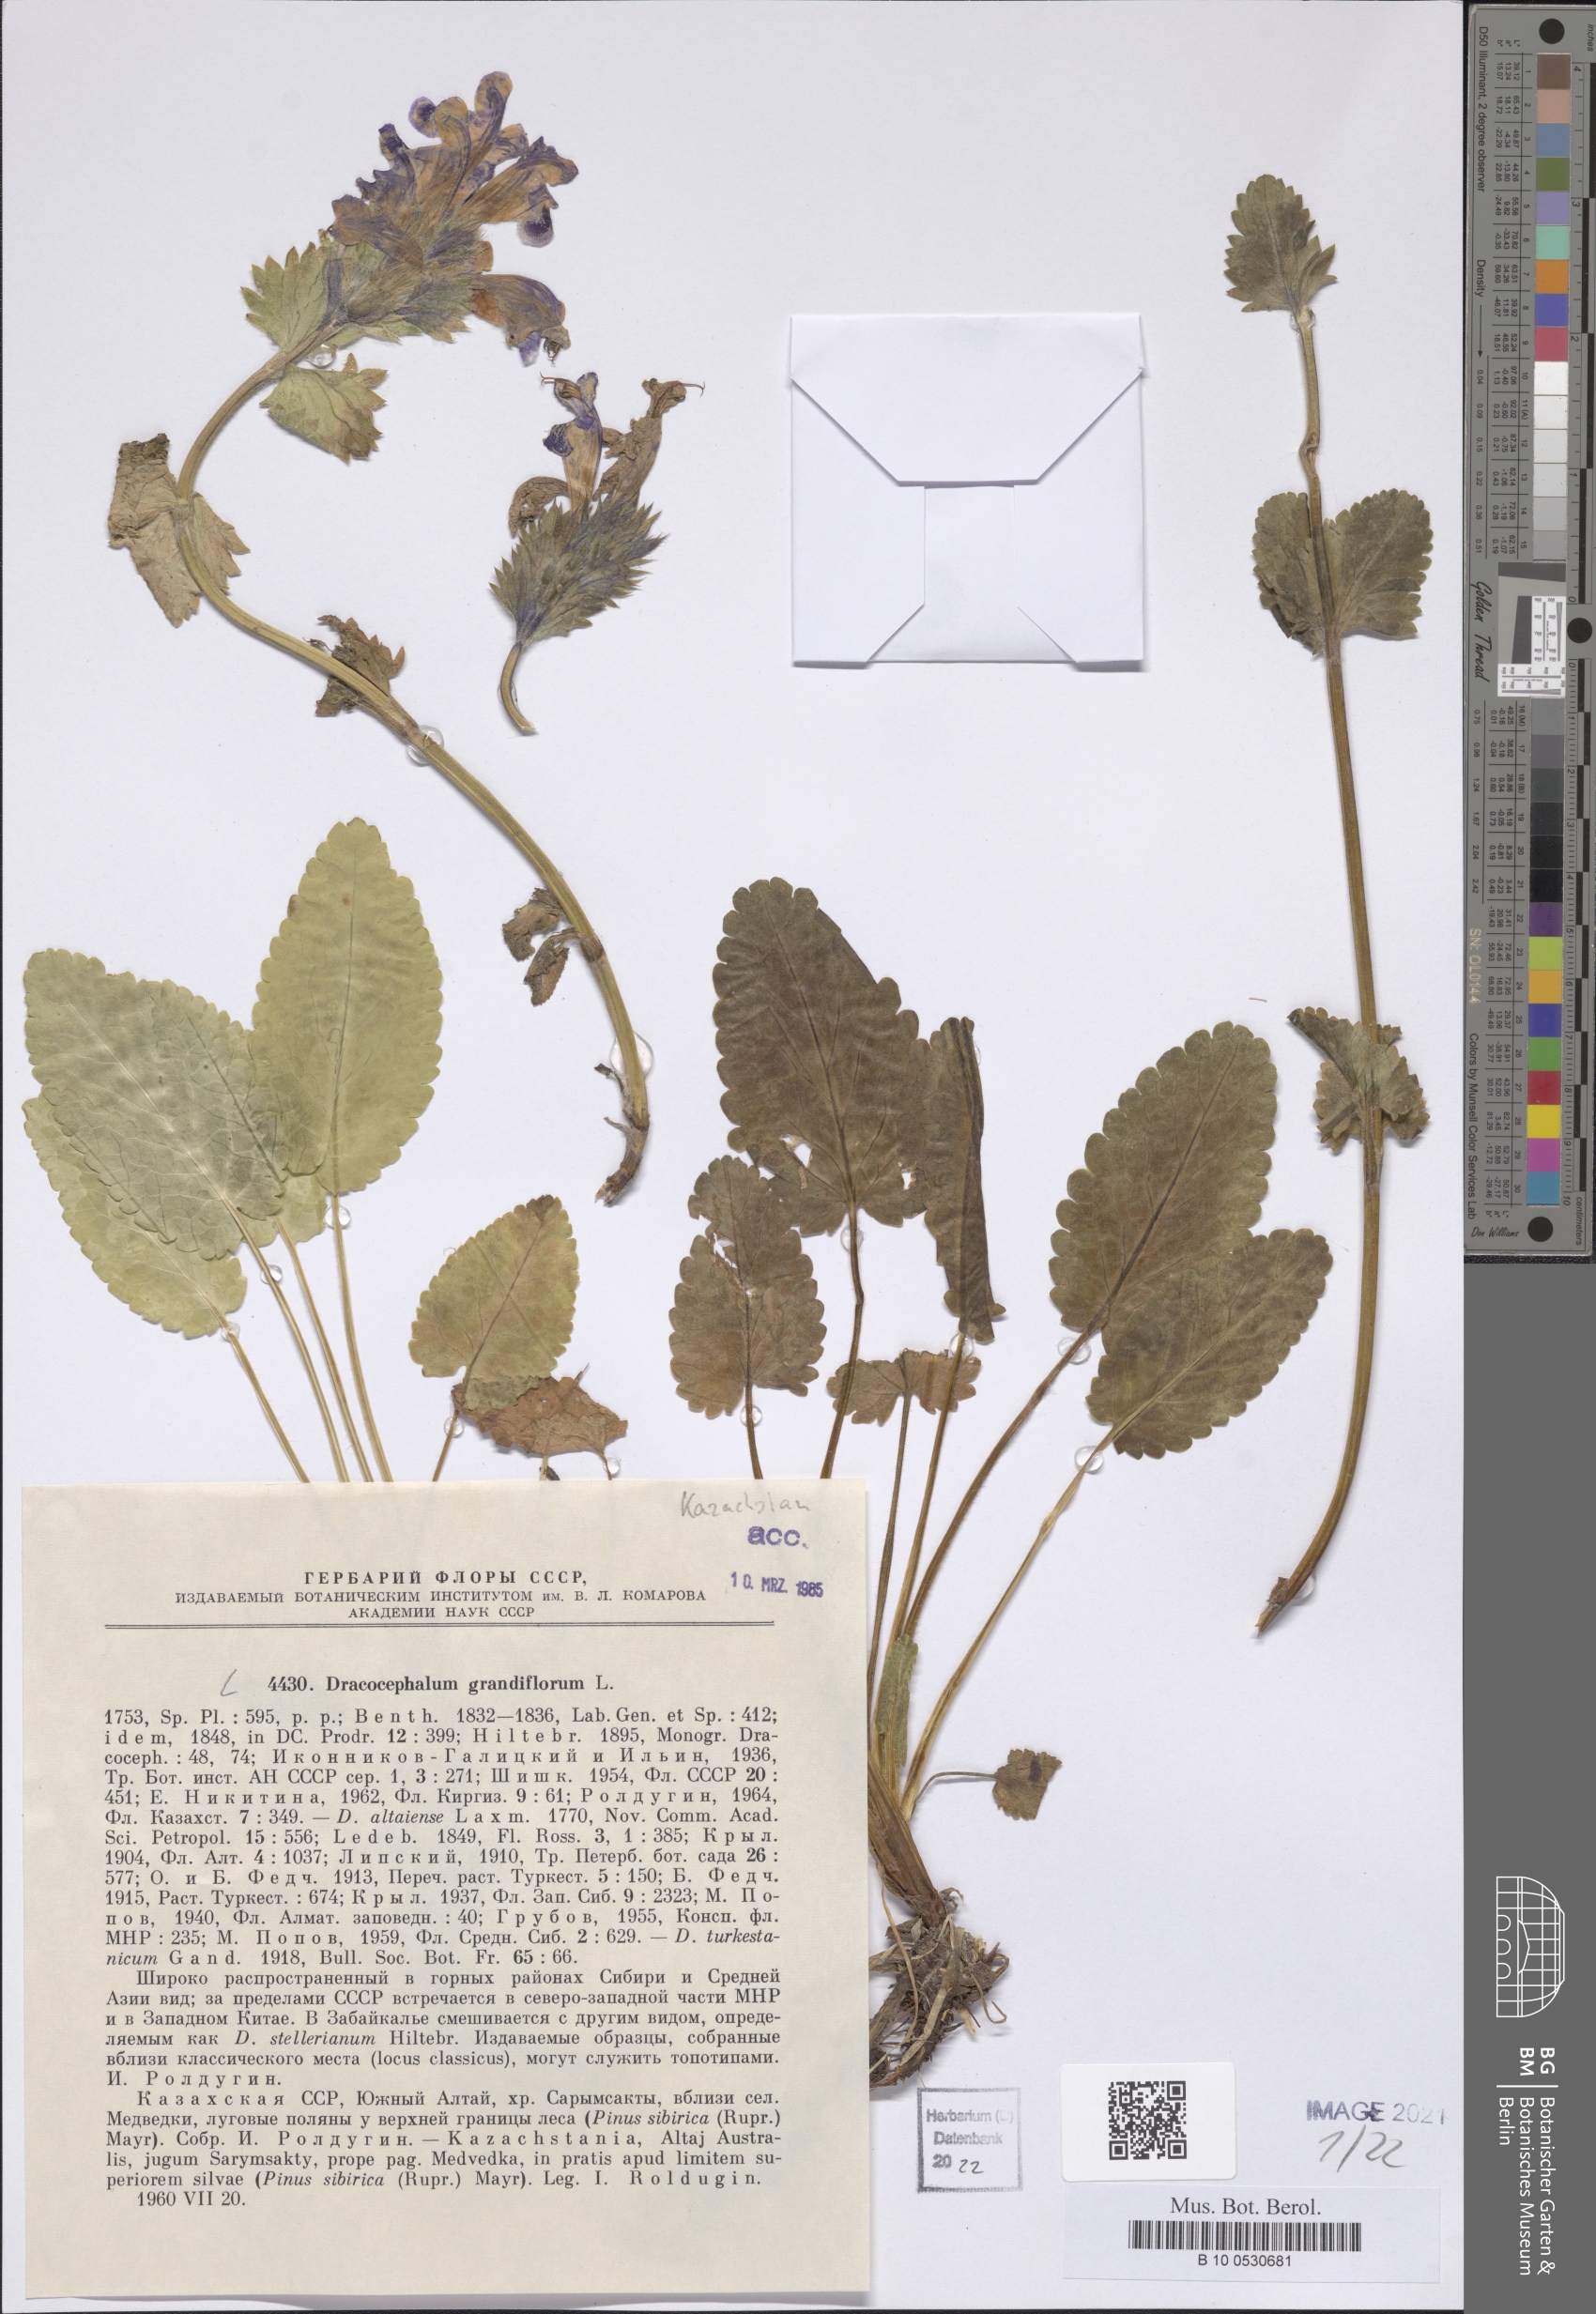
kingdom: Plantae
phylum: Tracheophyta
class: Magnoliopsida
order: Lamiales
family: Lamiaceae
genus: Dracocephalum
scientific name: Dracocephalum grandiflorum
